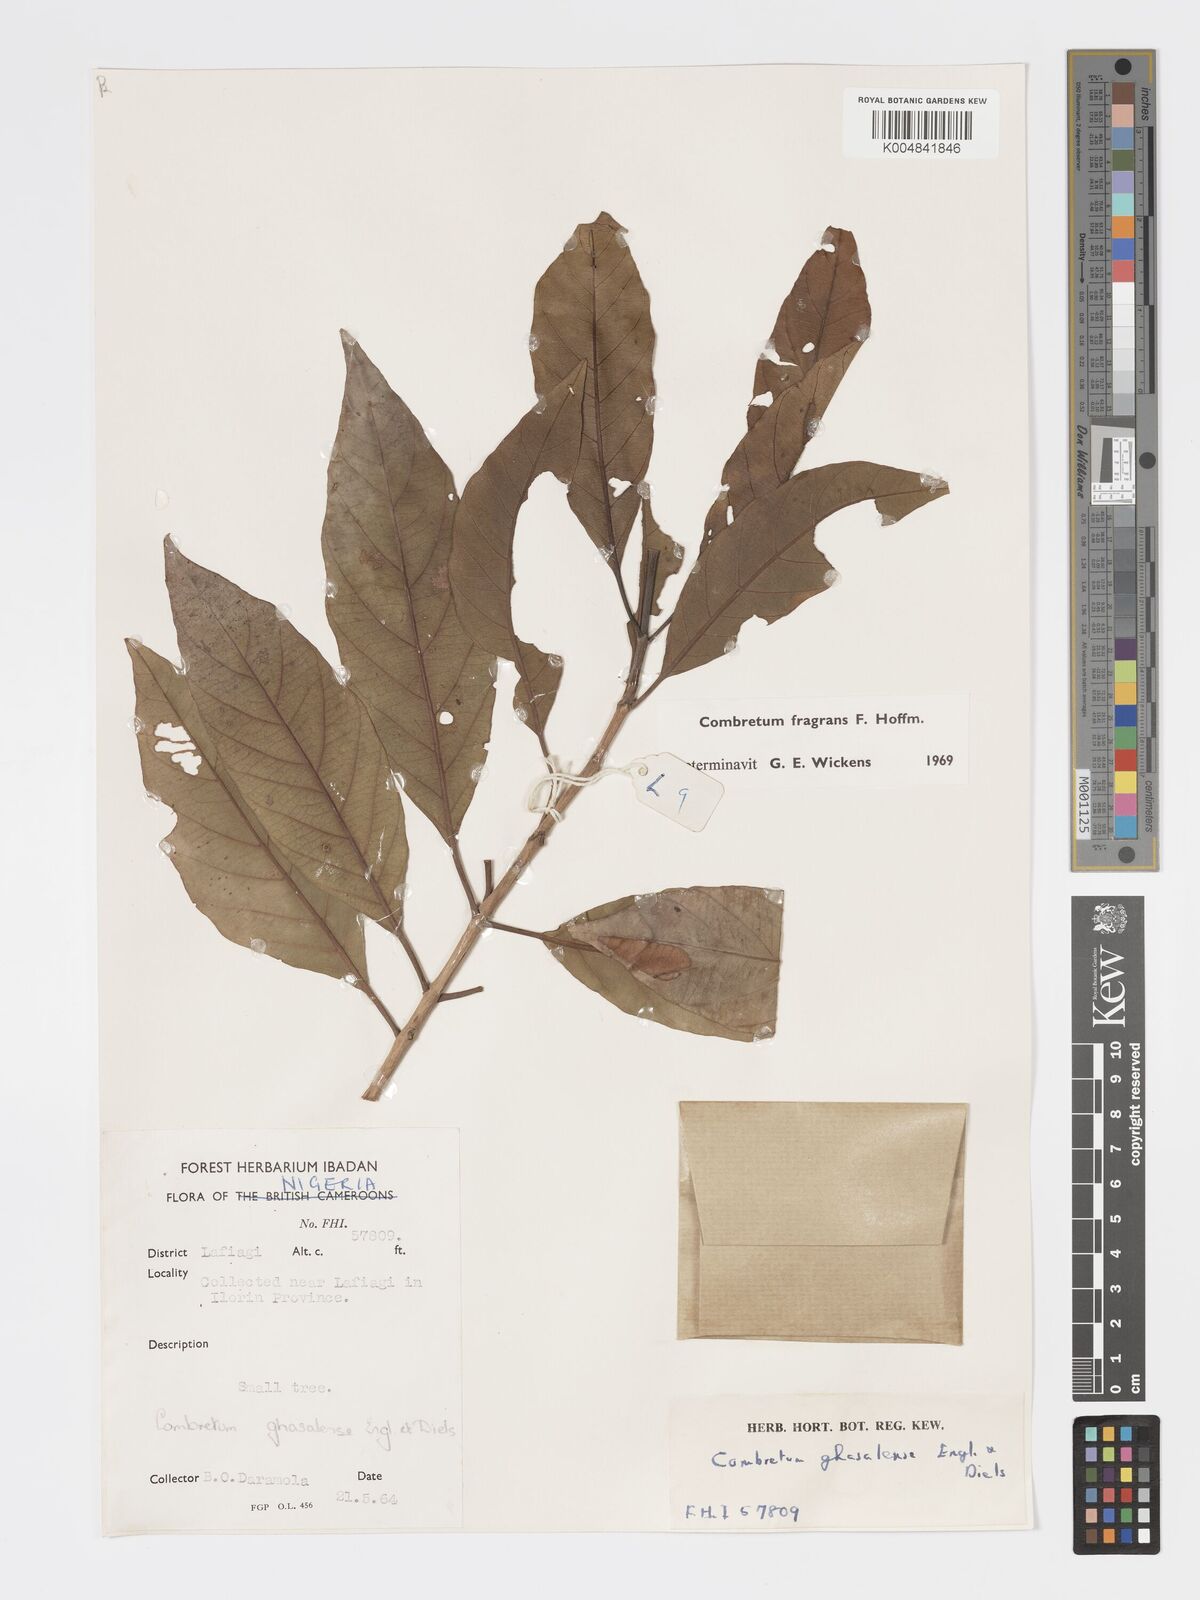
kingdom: Plantae
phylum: Tracheophyta
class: Magnoliopsida
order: Myrtales
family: Combretaceae
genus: Combretum
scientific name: Combretum adenogonium
